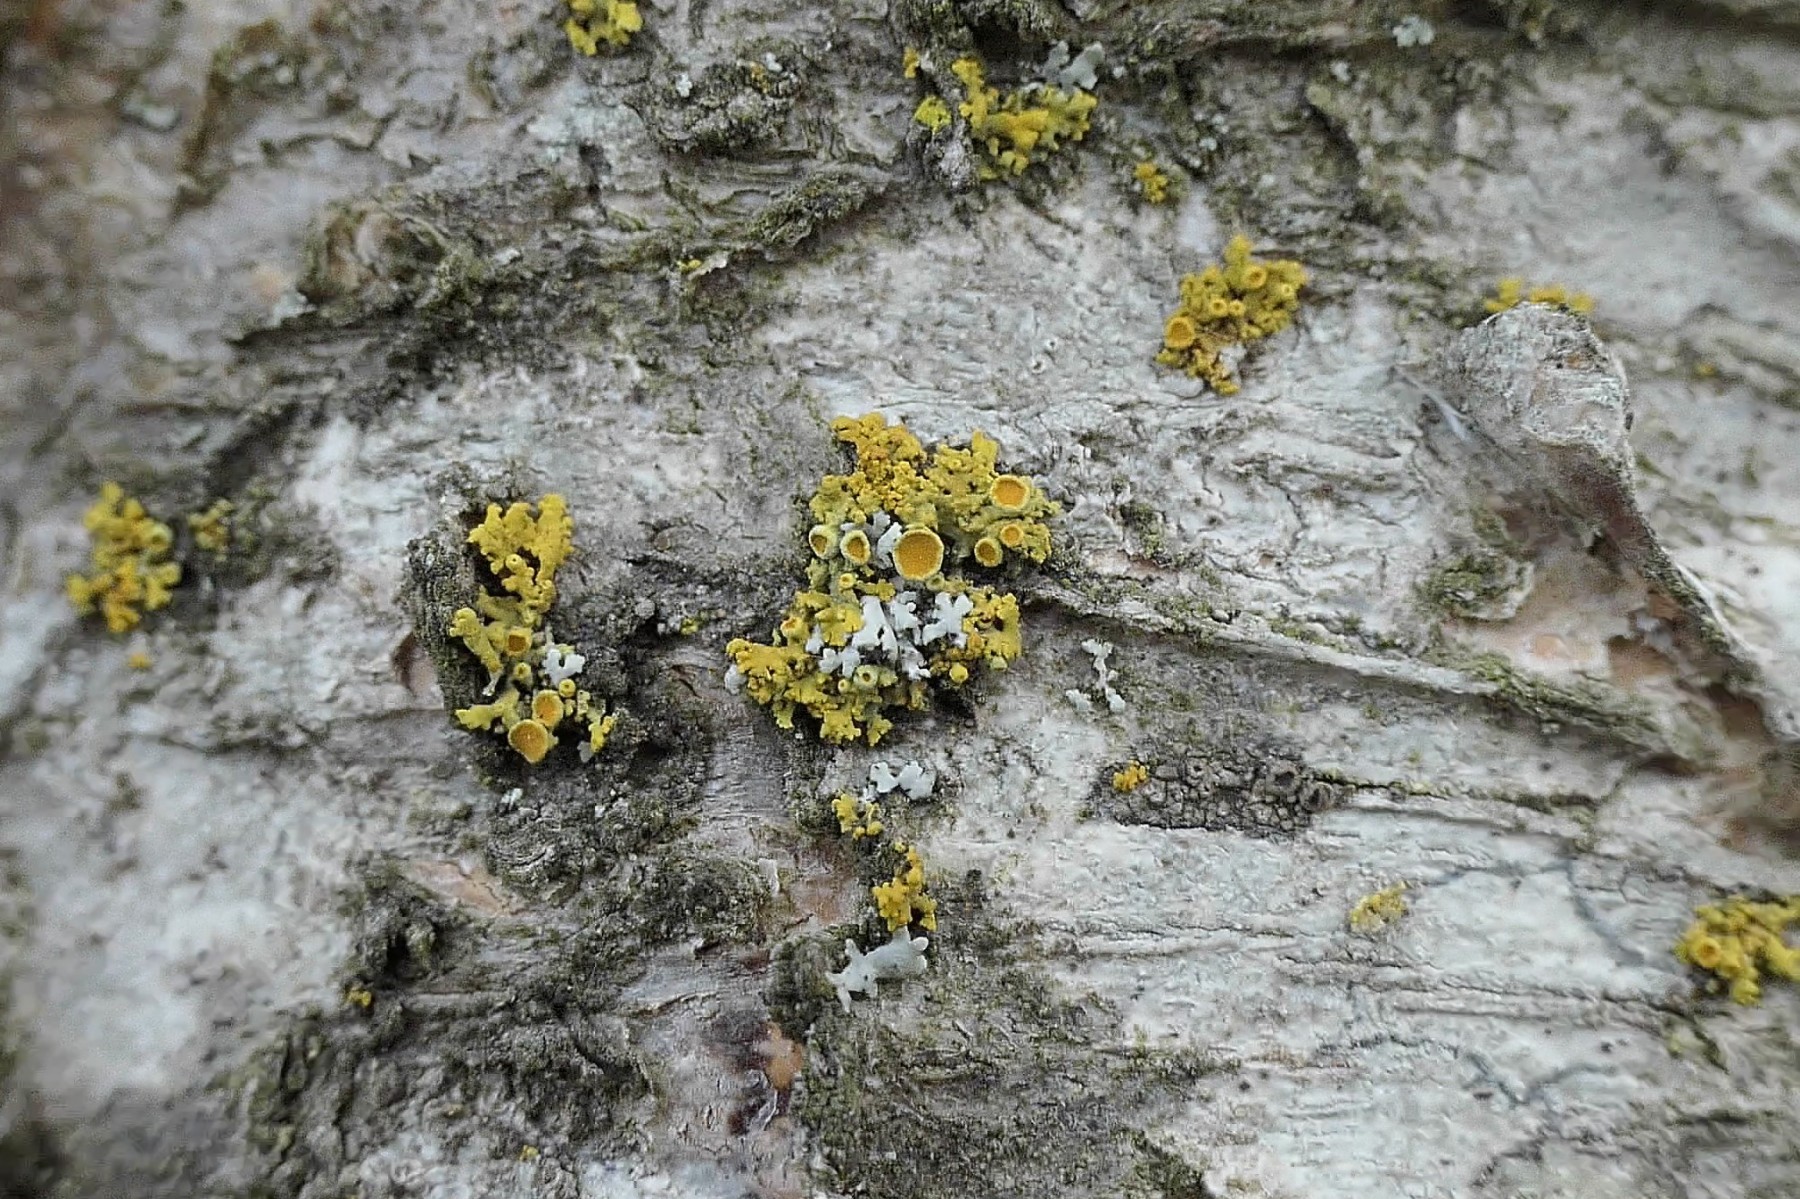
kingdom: Fungi
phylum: Ascomycota
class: Lecanoromycetes
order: Teloschistales
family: Teloschistaceae
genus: Polycauliona
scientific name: Polycauliona polycarpa
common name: mangefrugtet orangelav
